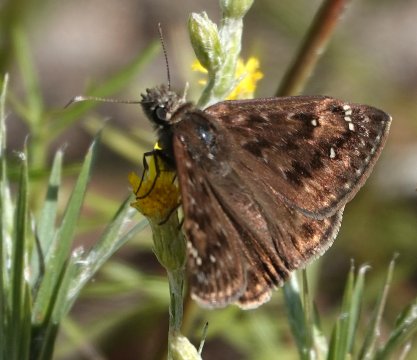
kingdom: Animalia
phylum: Arthropoda
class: Insecta
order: Lepidoptera
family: Hesperiidae
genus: Erynnis
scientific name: Erynnis zarucco
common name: Zarucco Duskywing
